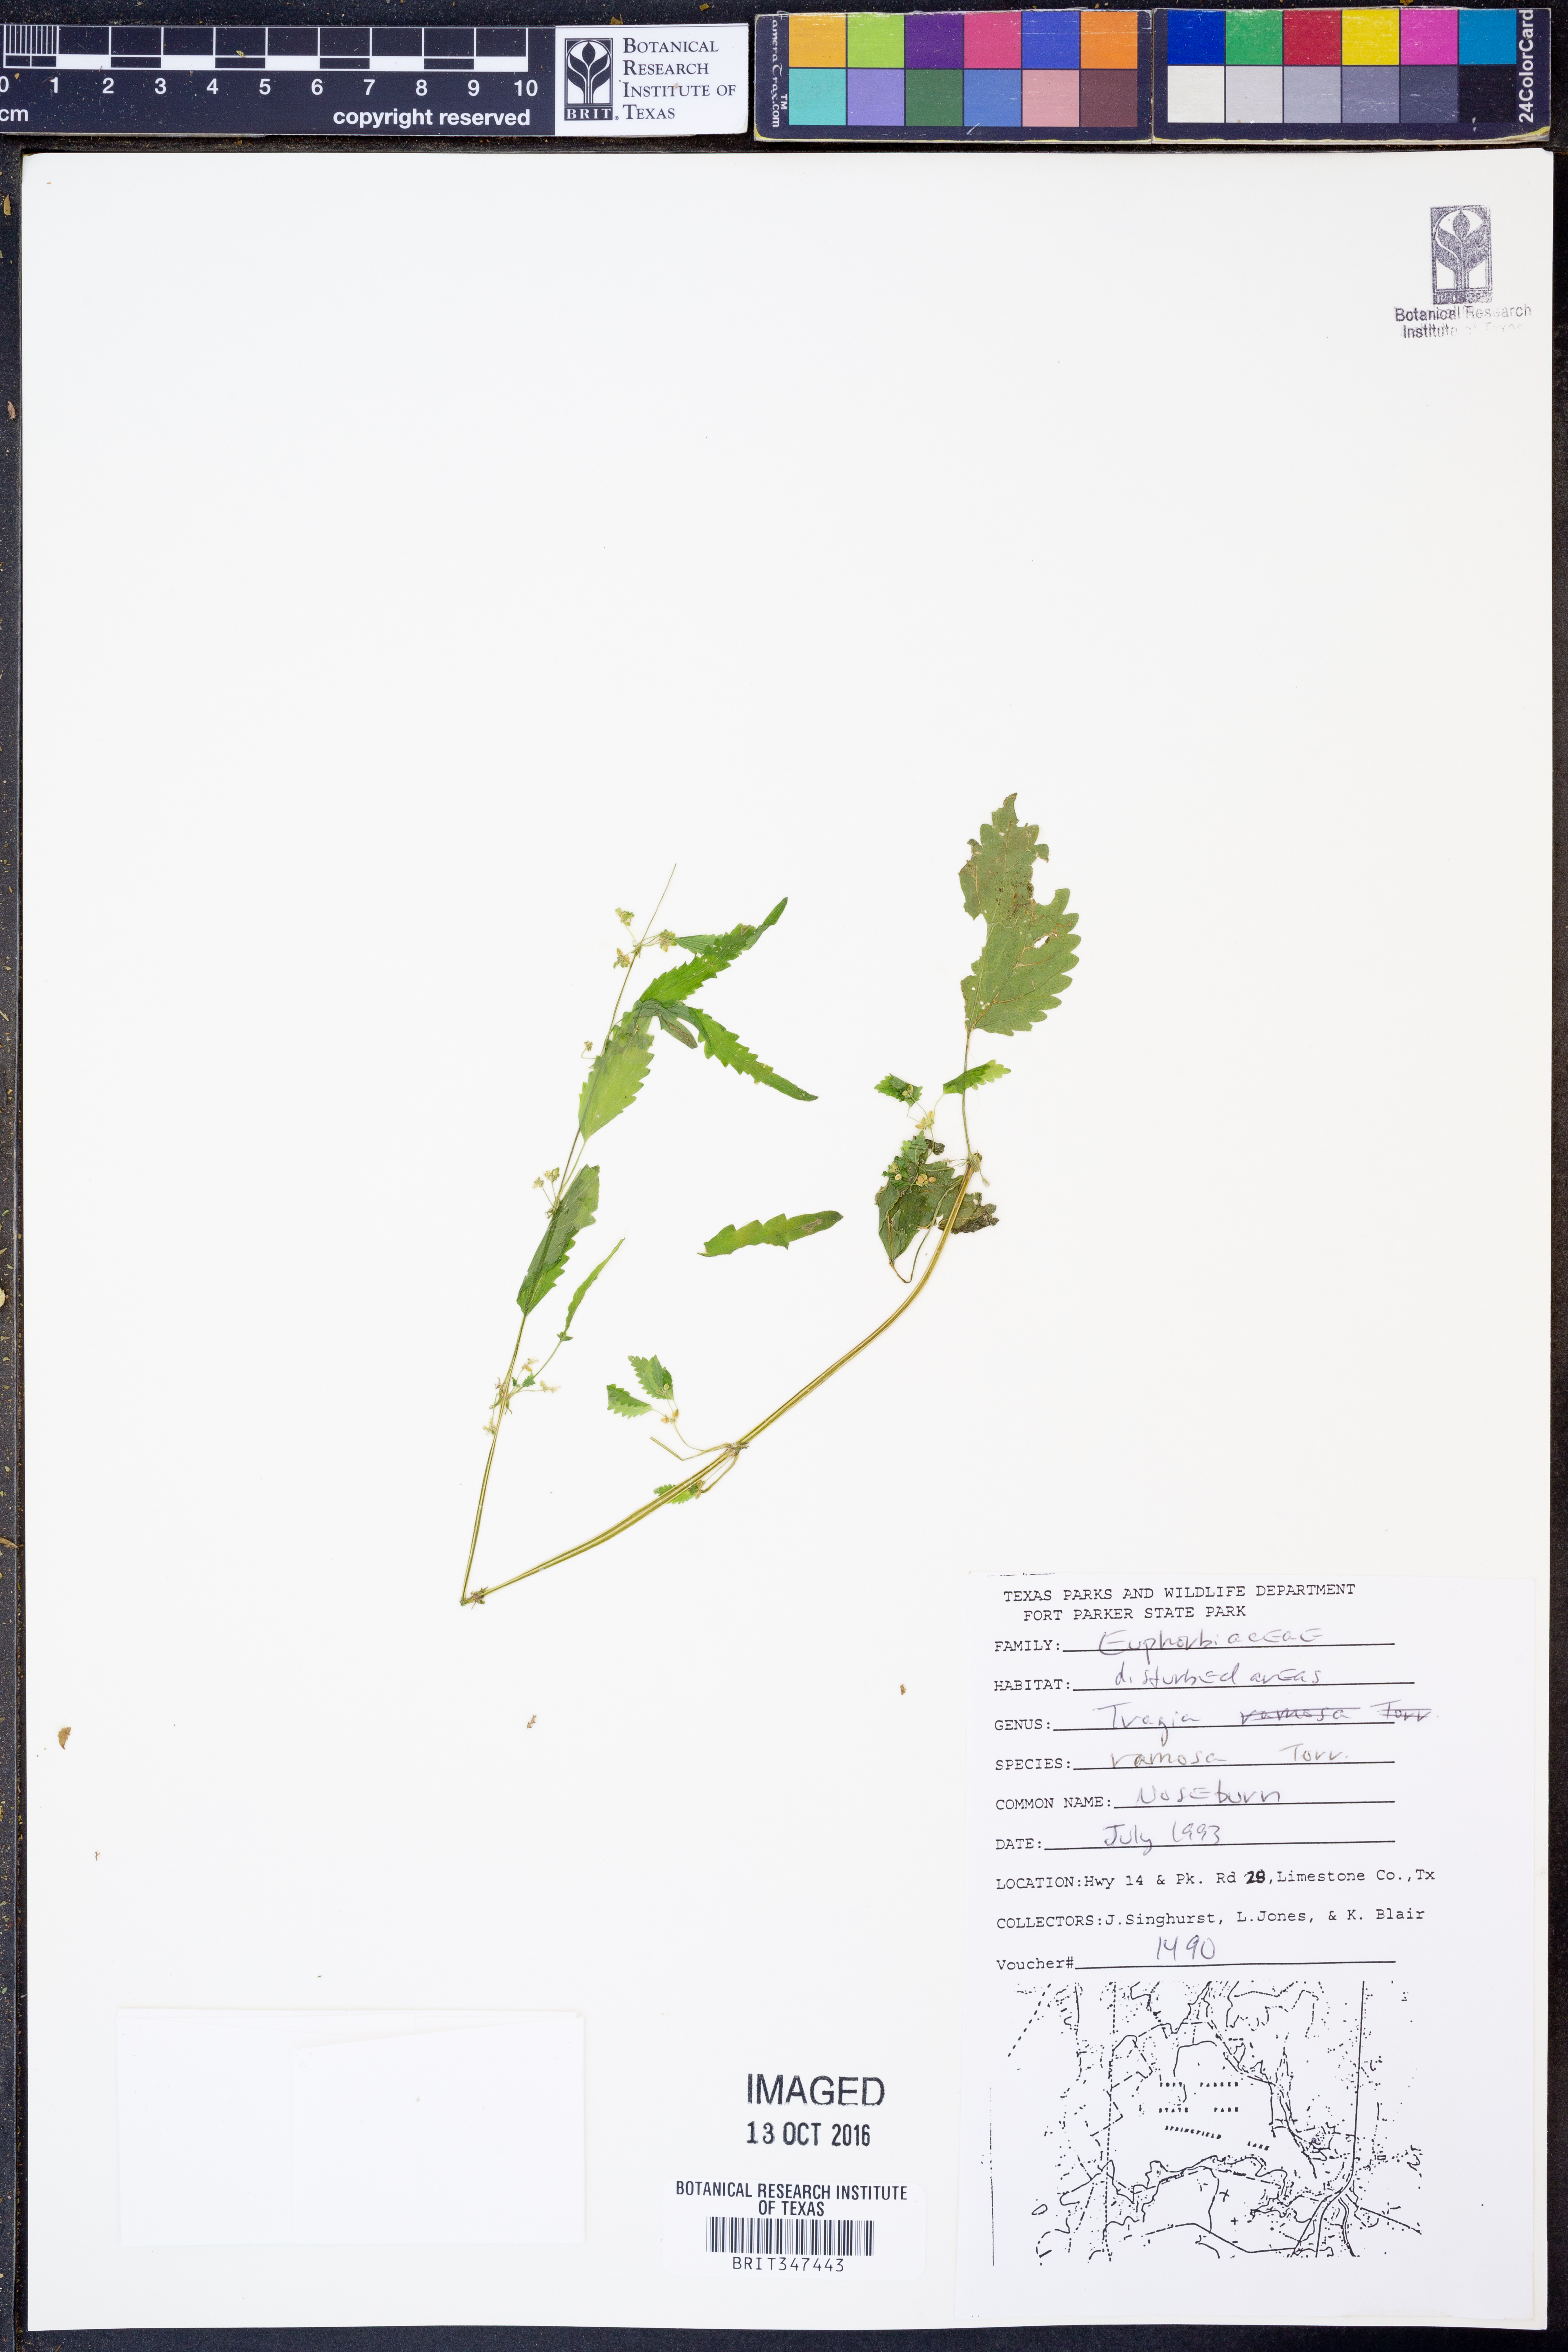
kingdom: Plantae
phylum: Tracheophyta
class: Magnoliopsida
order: Malpighiales
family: Euphorbiaceae
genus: Tragia
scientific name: Tragia ramosa
